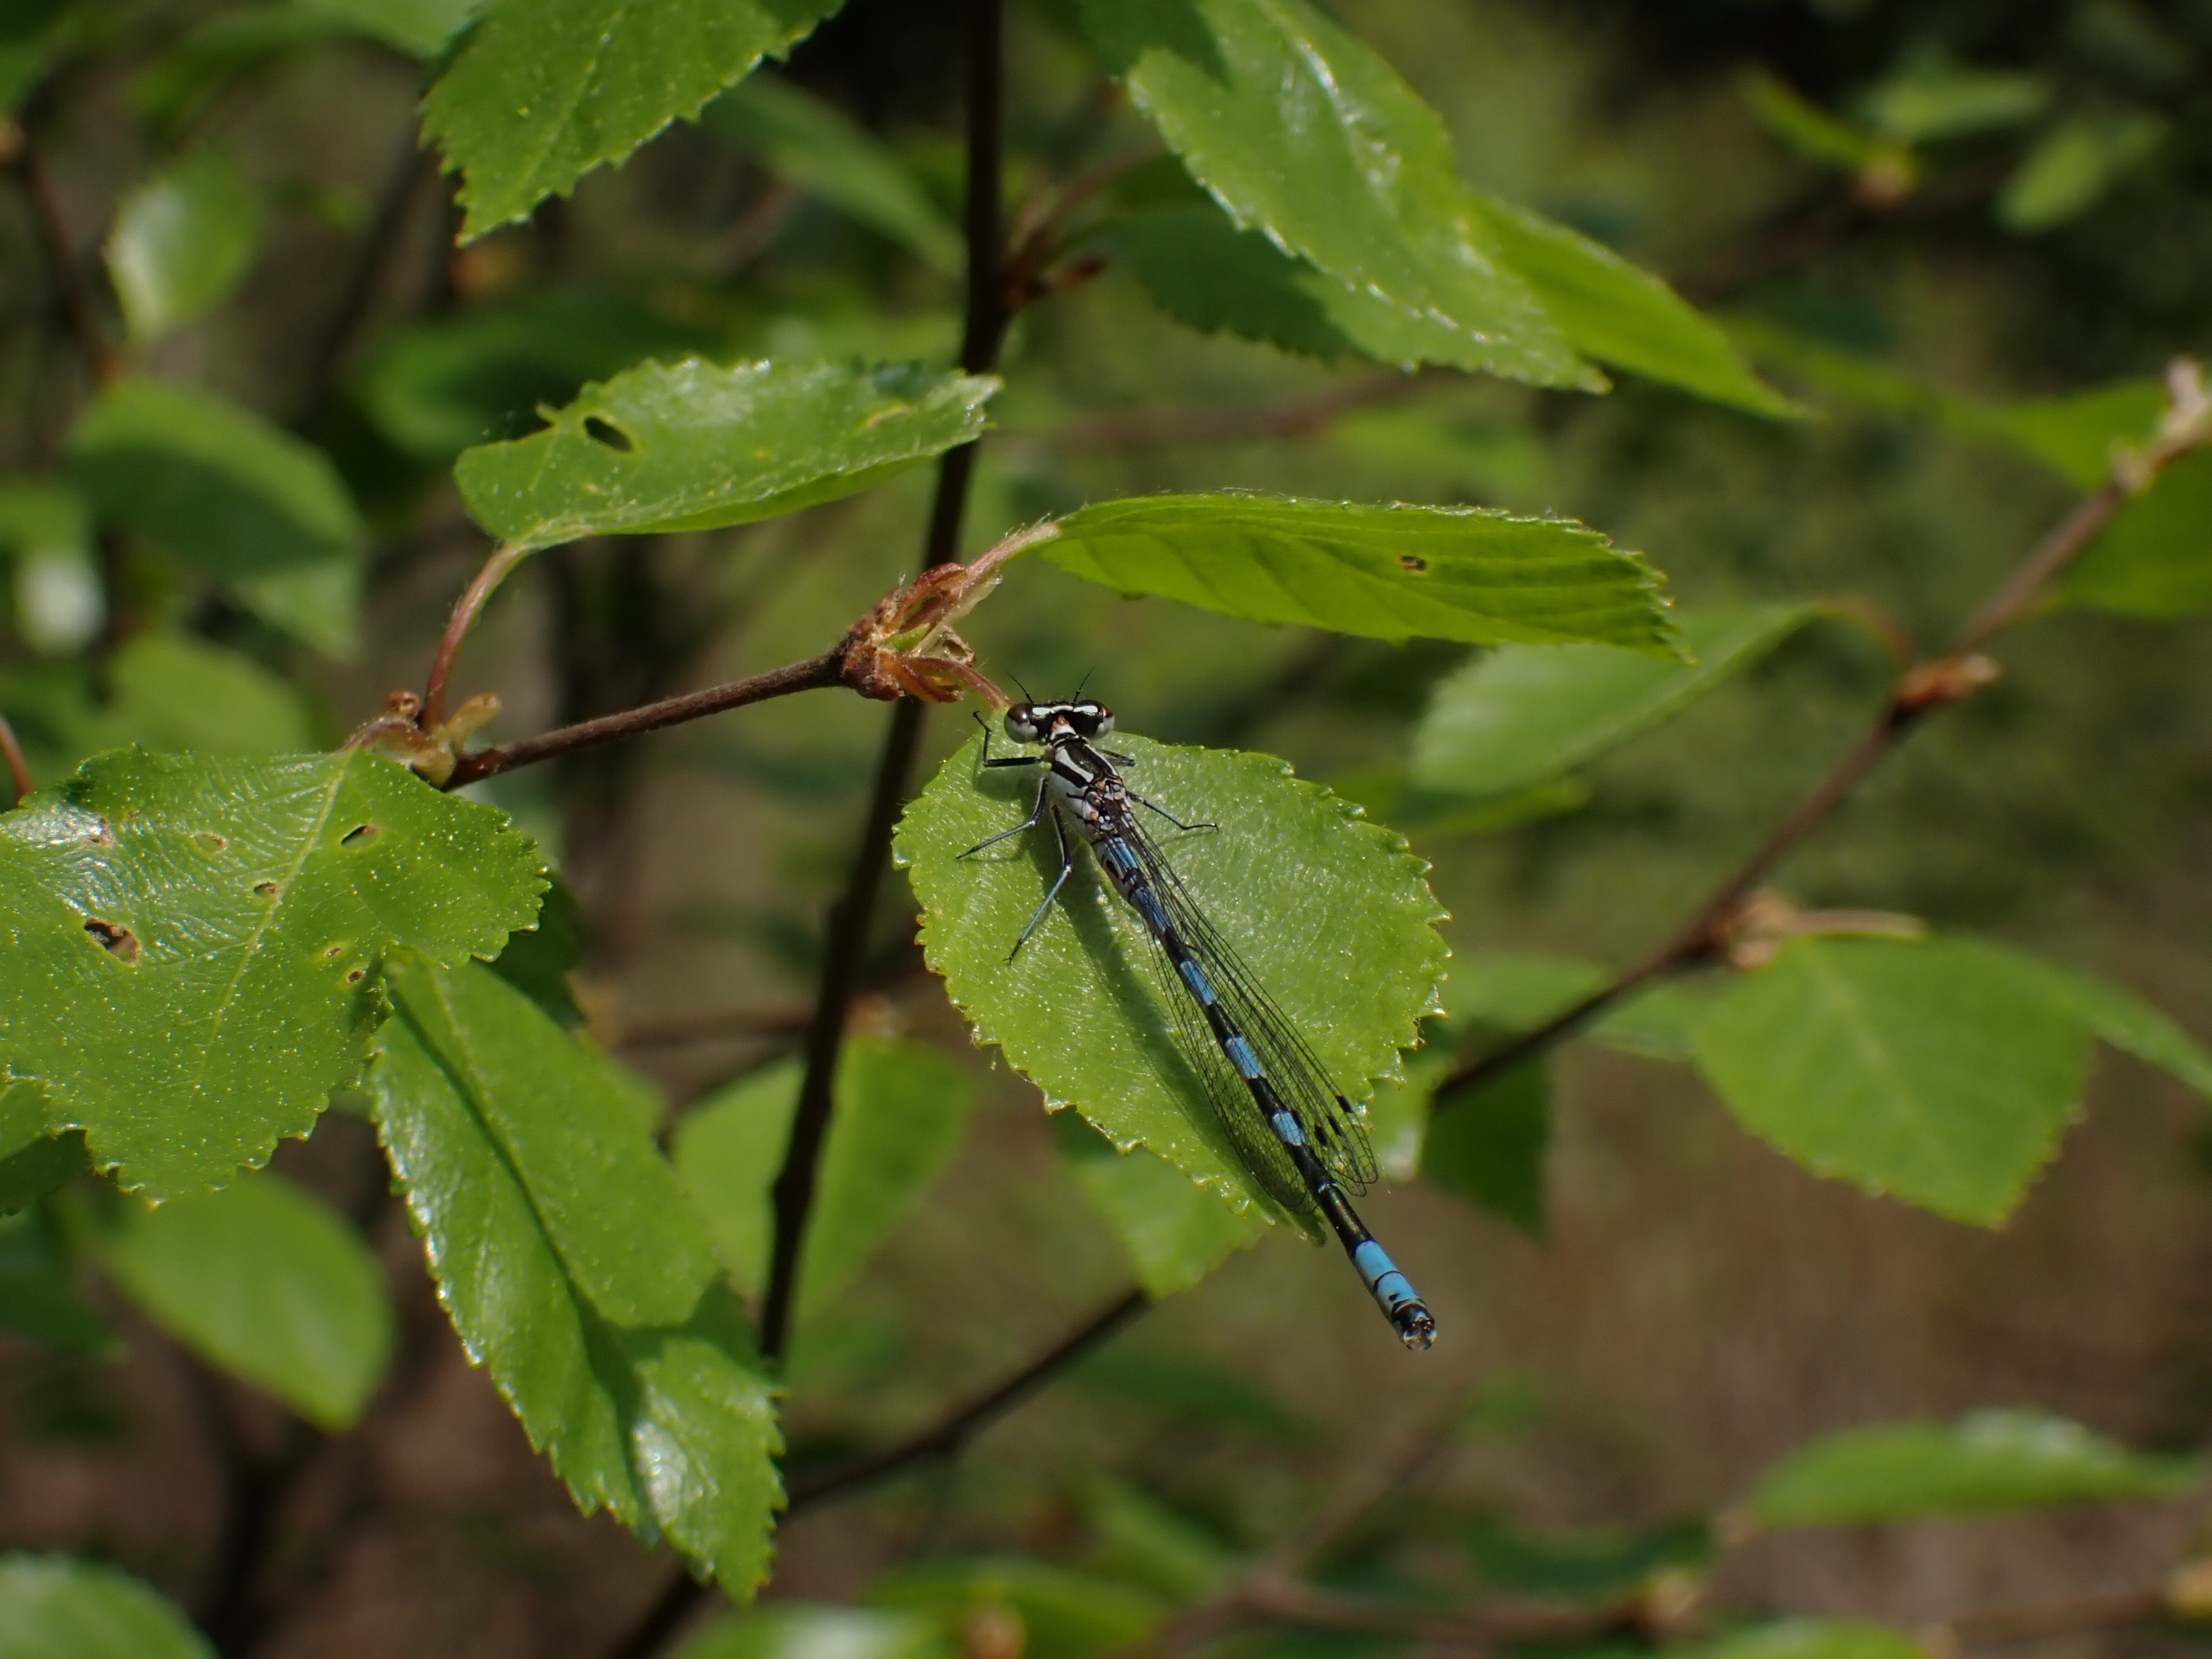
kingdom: Animalia
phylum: Arthropoda
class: Insecta
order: Odonata
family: Coenagrionidae
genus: Coenagrion
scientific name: Coenagrion hastulatum
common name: Spyd-vandnymfe
